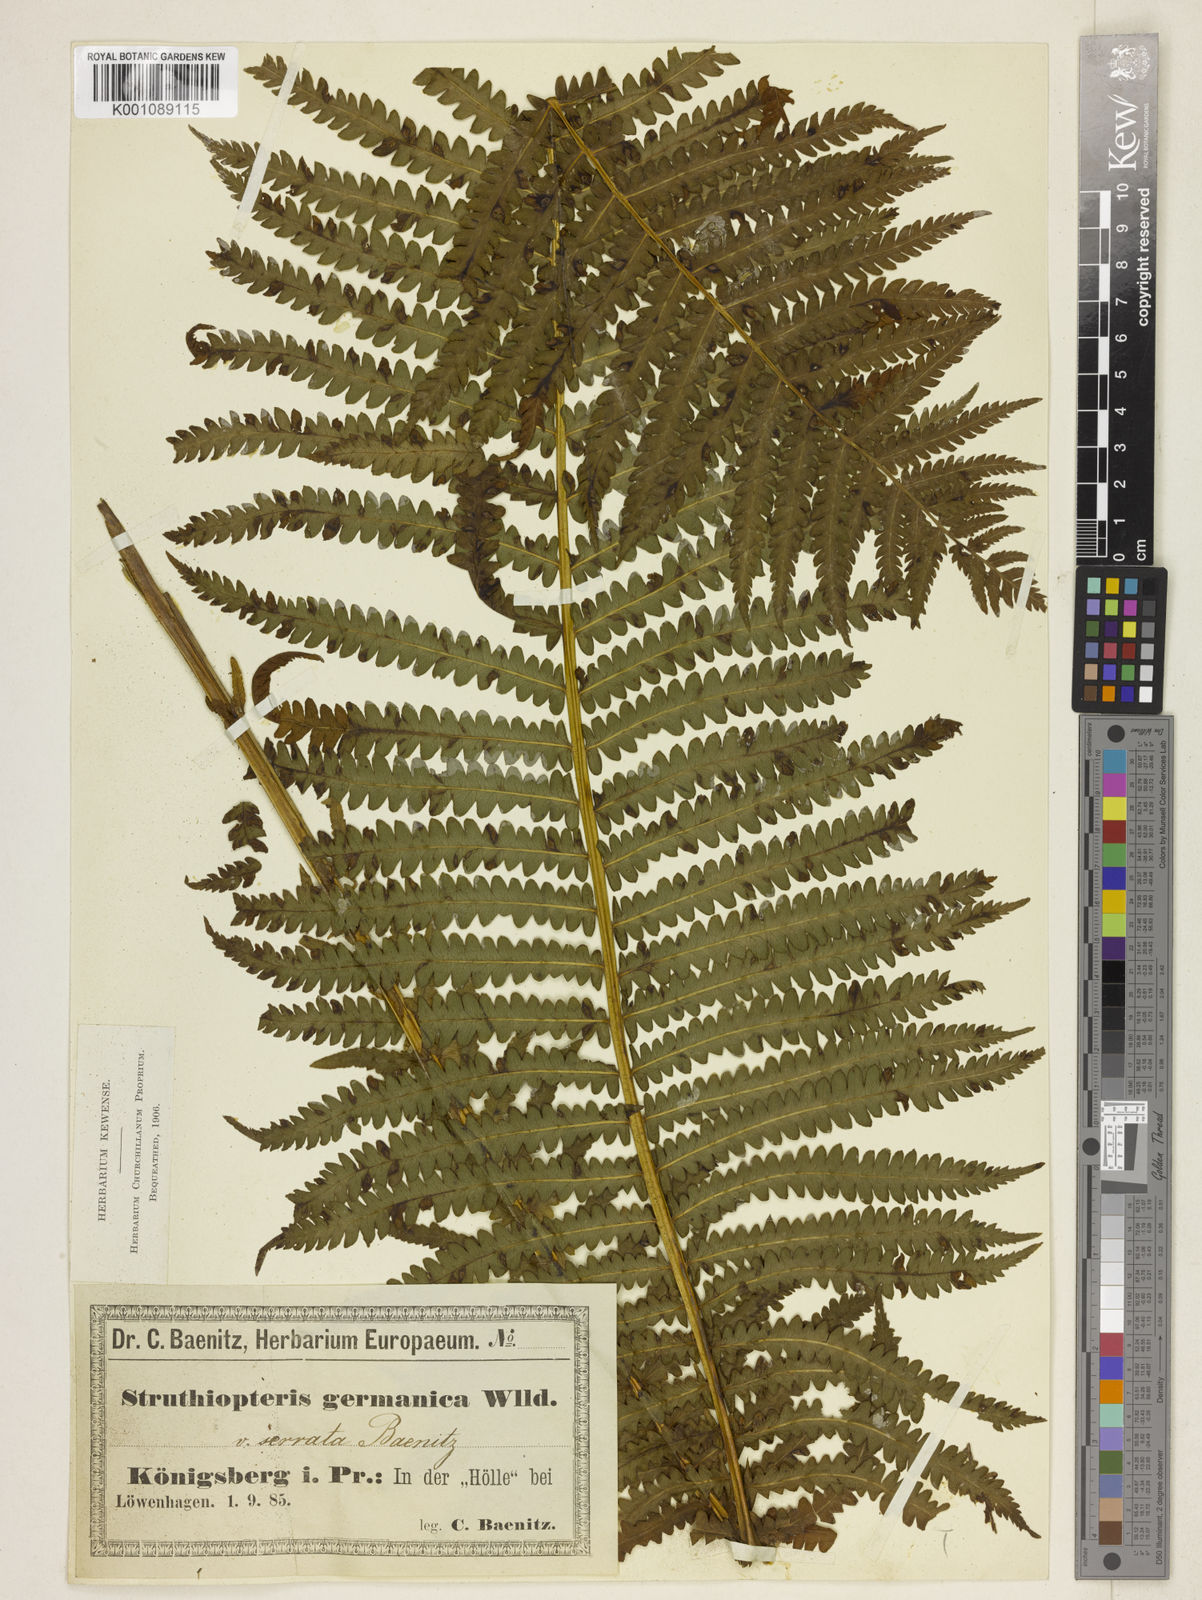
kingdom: Plantae
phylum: Tracheophyta
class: Polypodiopsida
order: Polypodiales
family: Onocleaceae
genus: Matteuccia
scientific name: Matteuccia struthiopteris
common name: Ostrich fern
